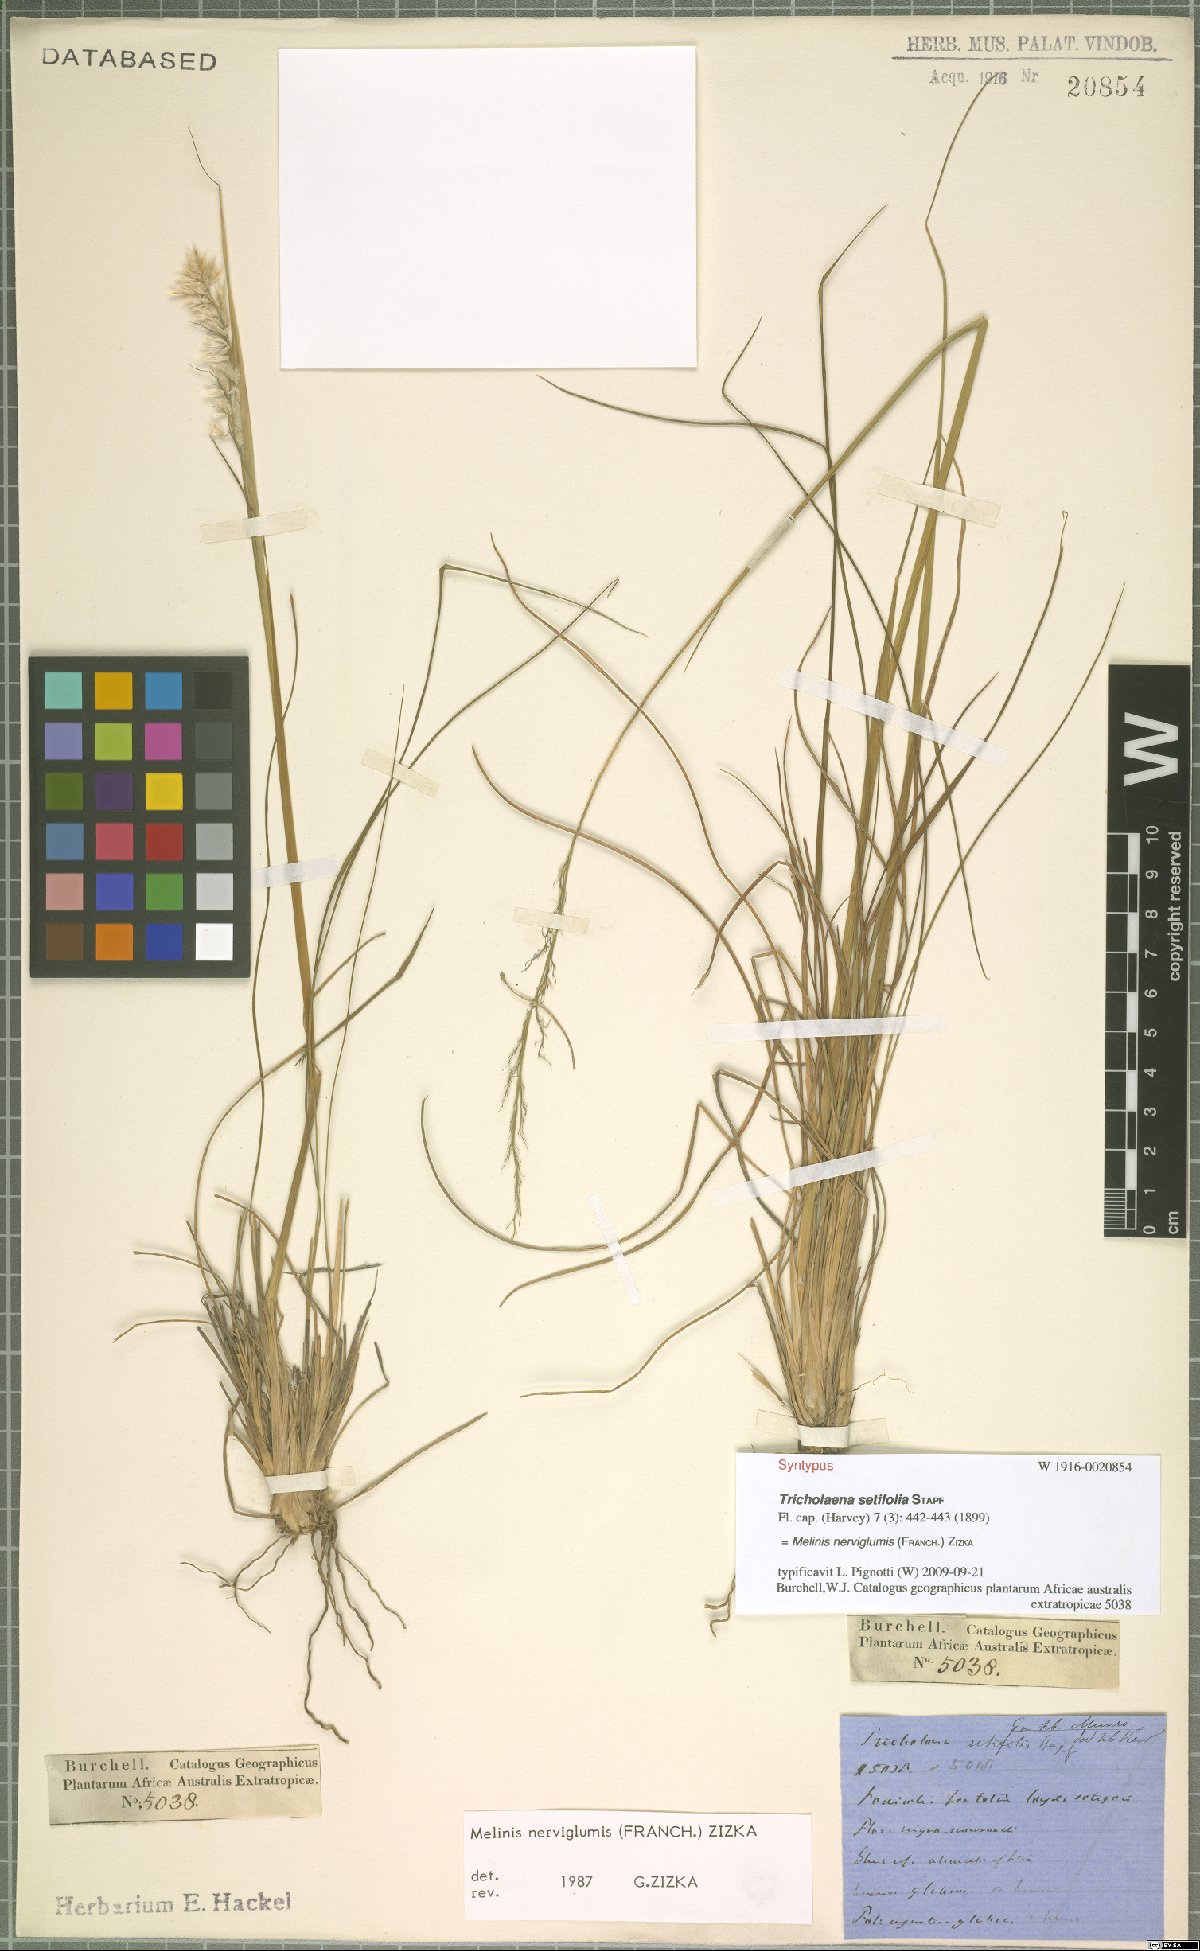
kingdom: Plantae
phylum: Tracheophyta
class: Liliopsida
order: Poales
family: Poaceae
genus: Melinis
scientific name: Melinis nerviglumis
